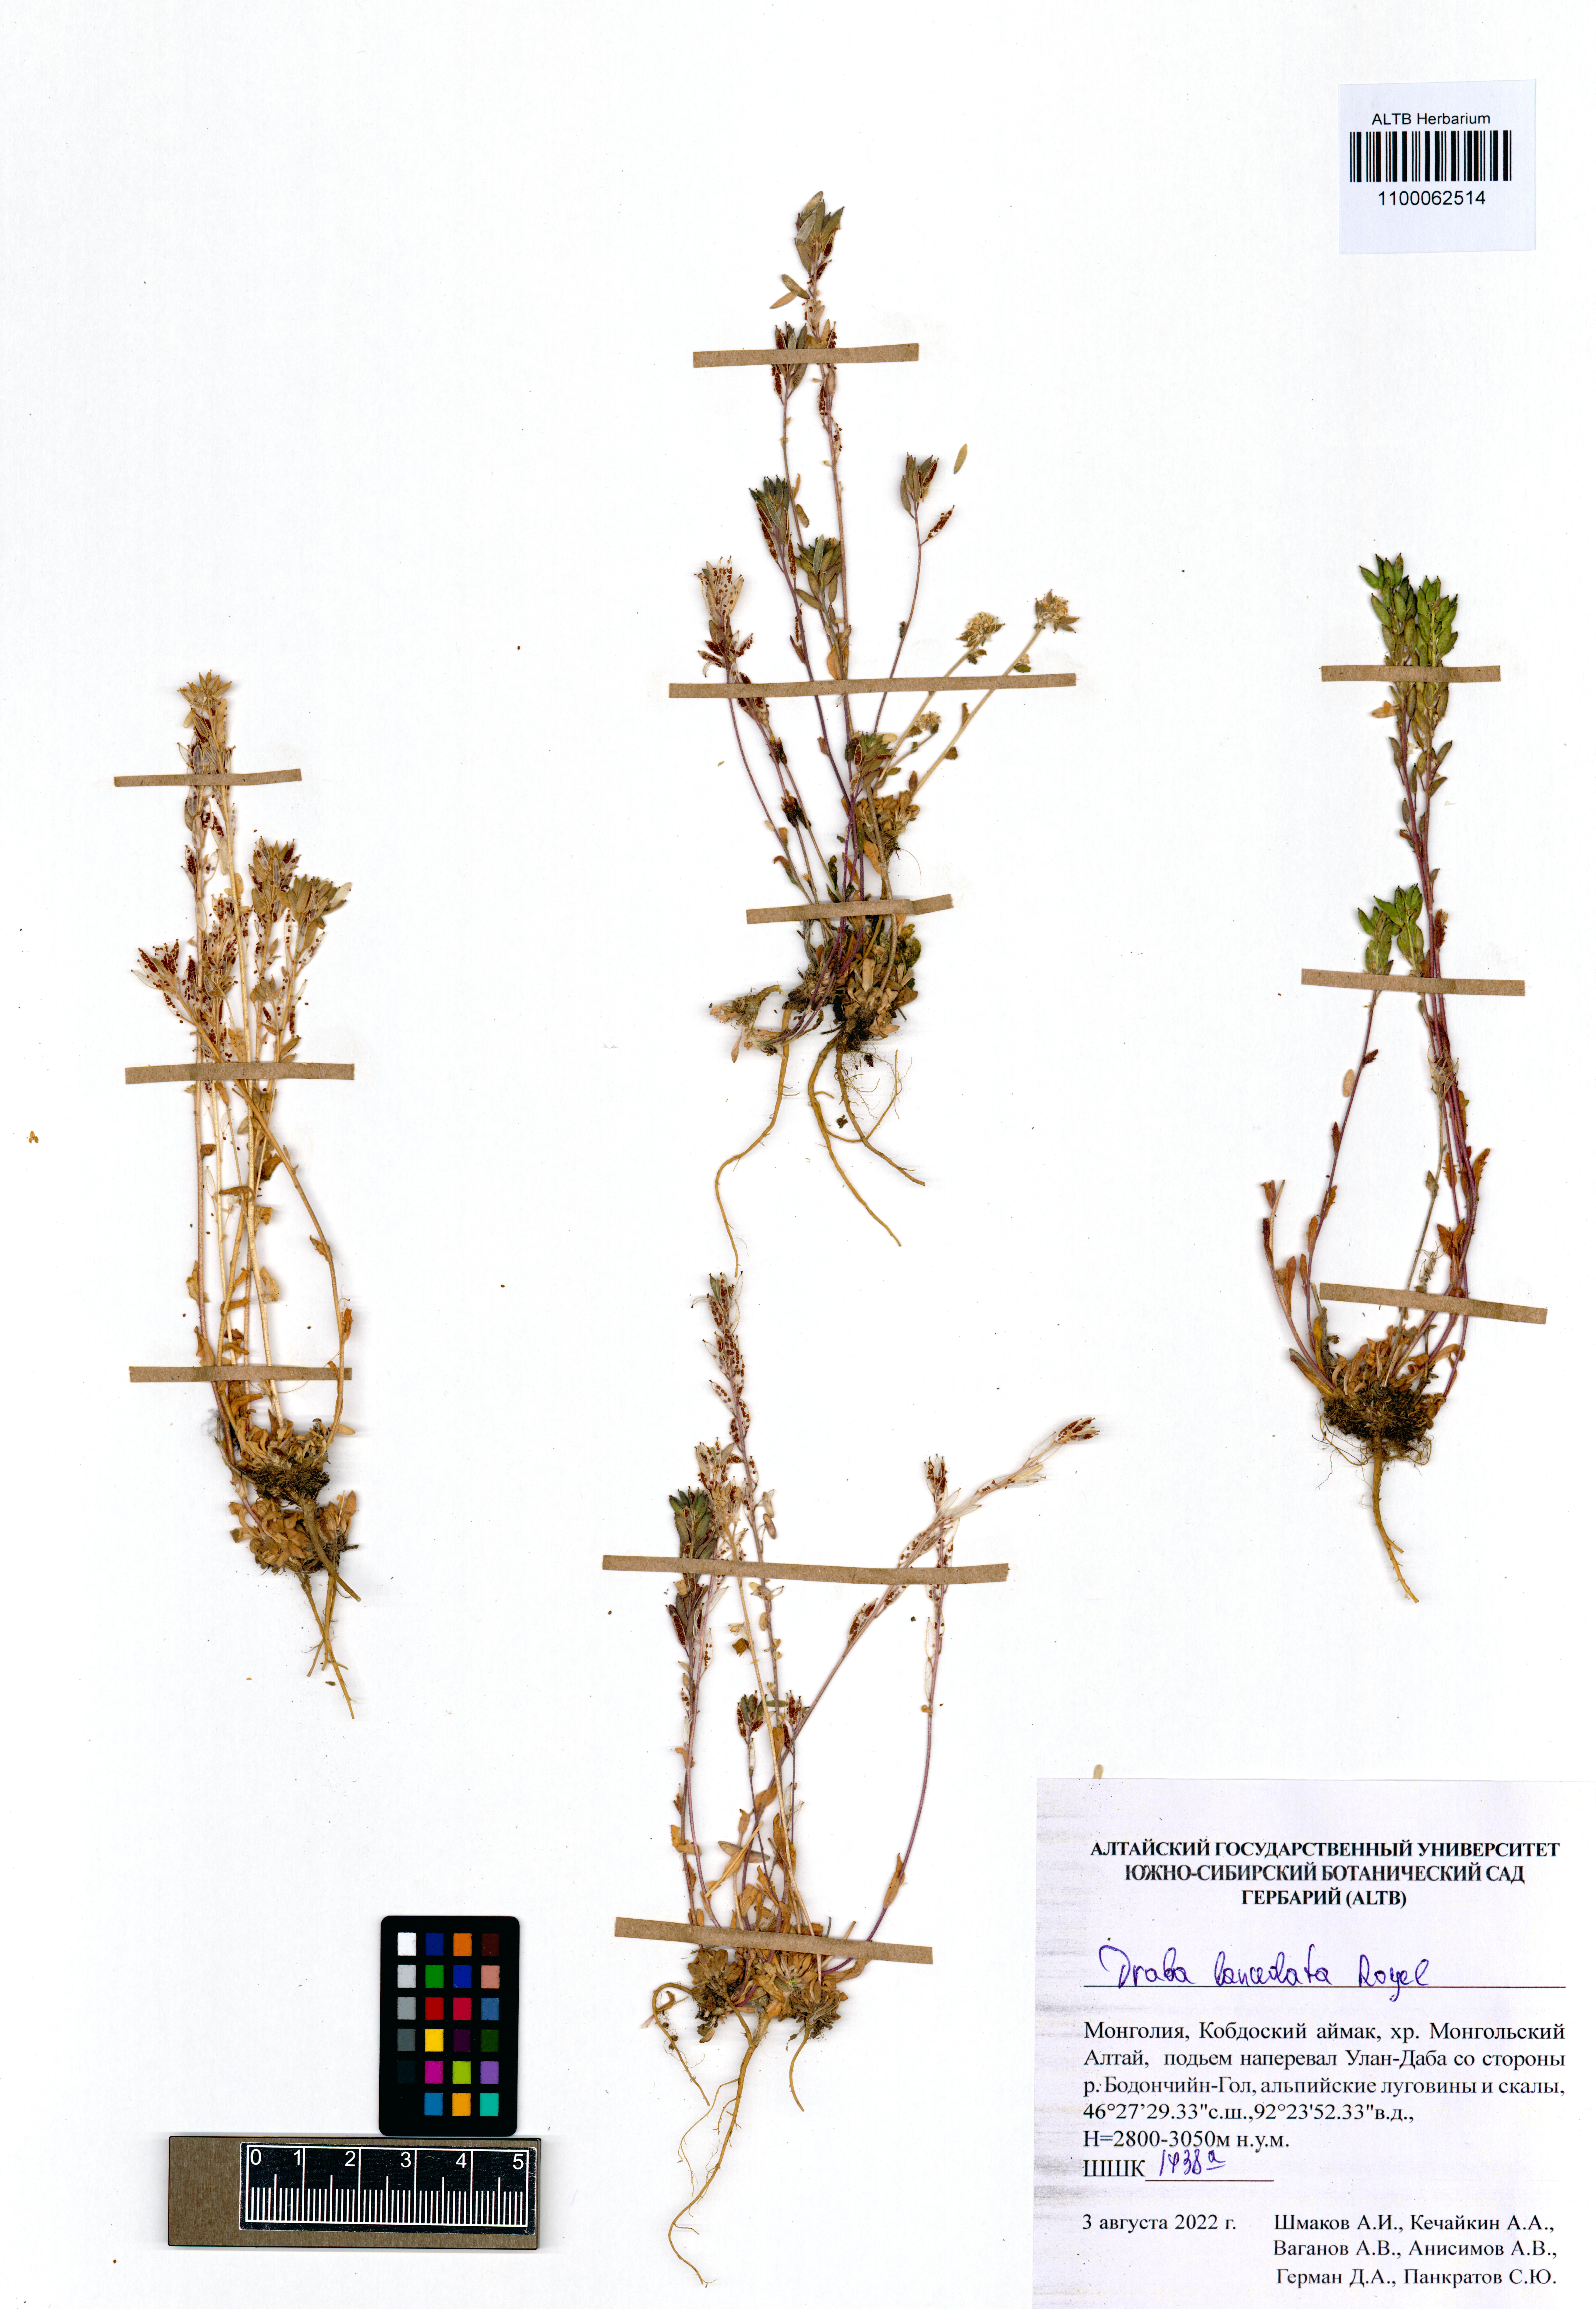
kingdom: Plantae
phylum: Tracheophyta
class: Magnoliopsida
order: Brassicales
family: Brassicaceae
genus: Draba
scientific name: Draba lanceolata
